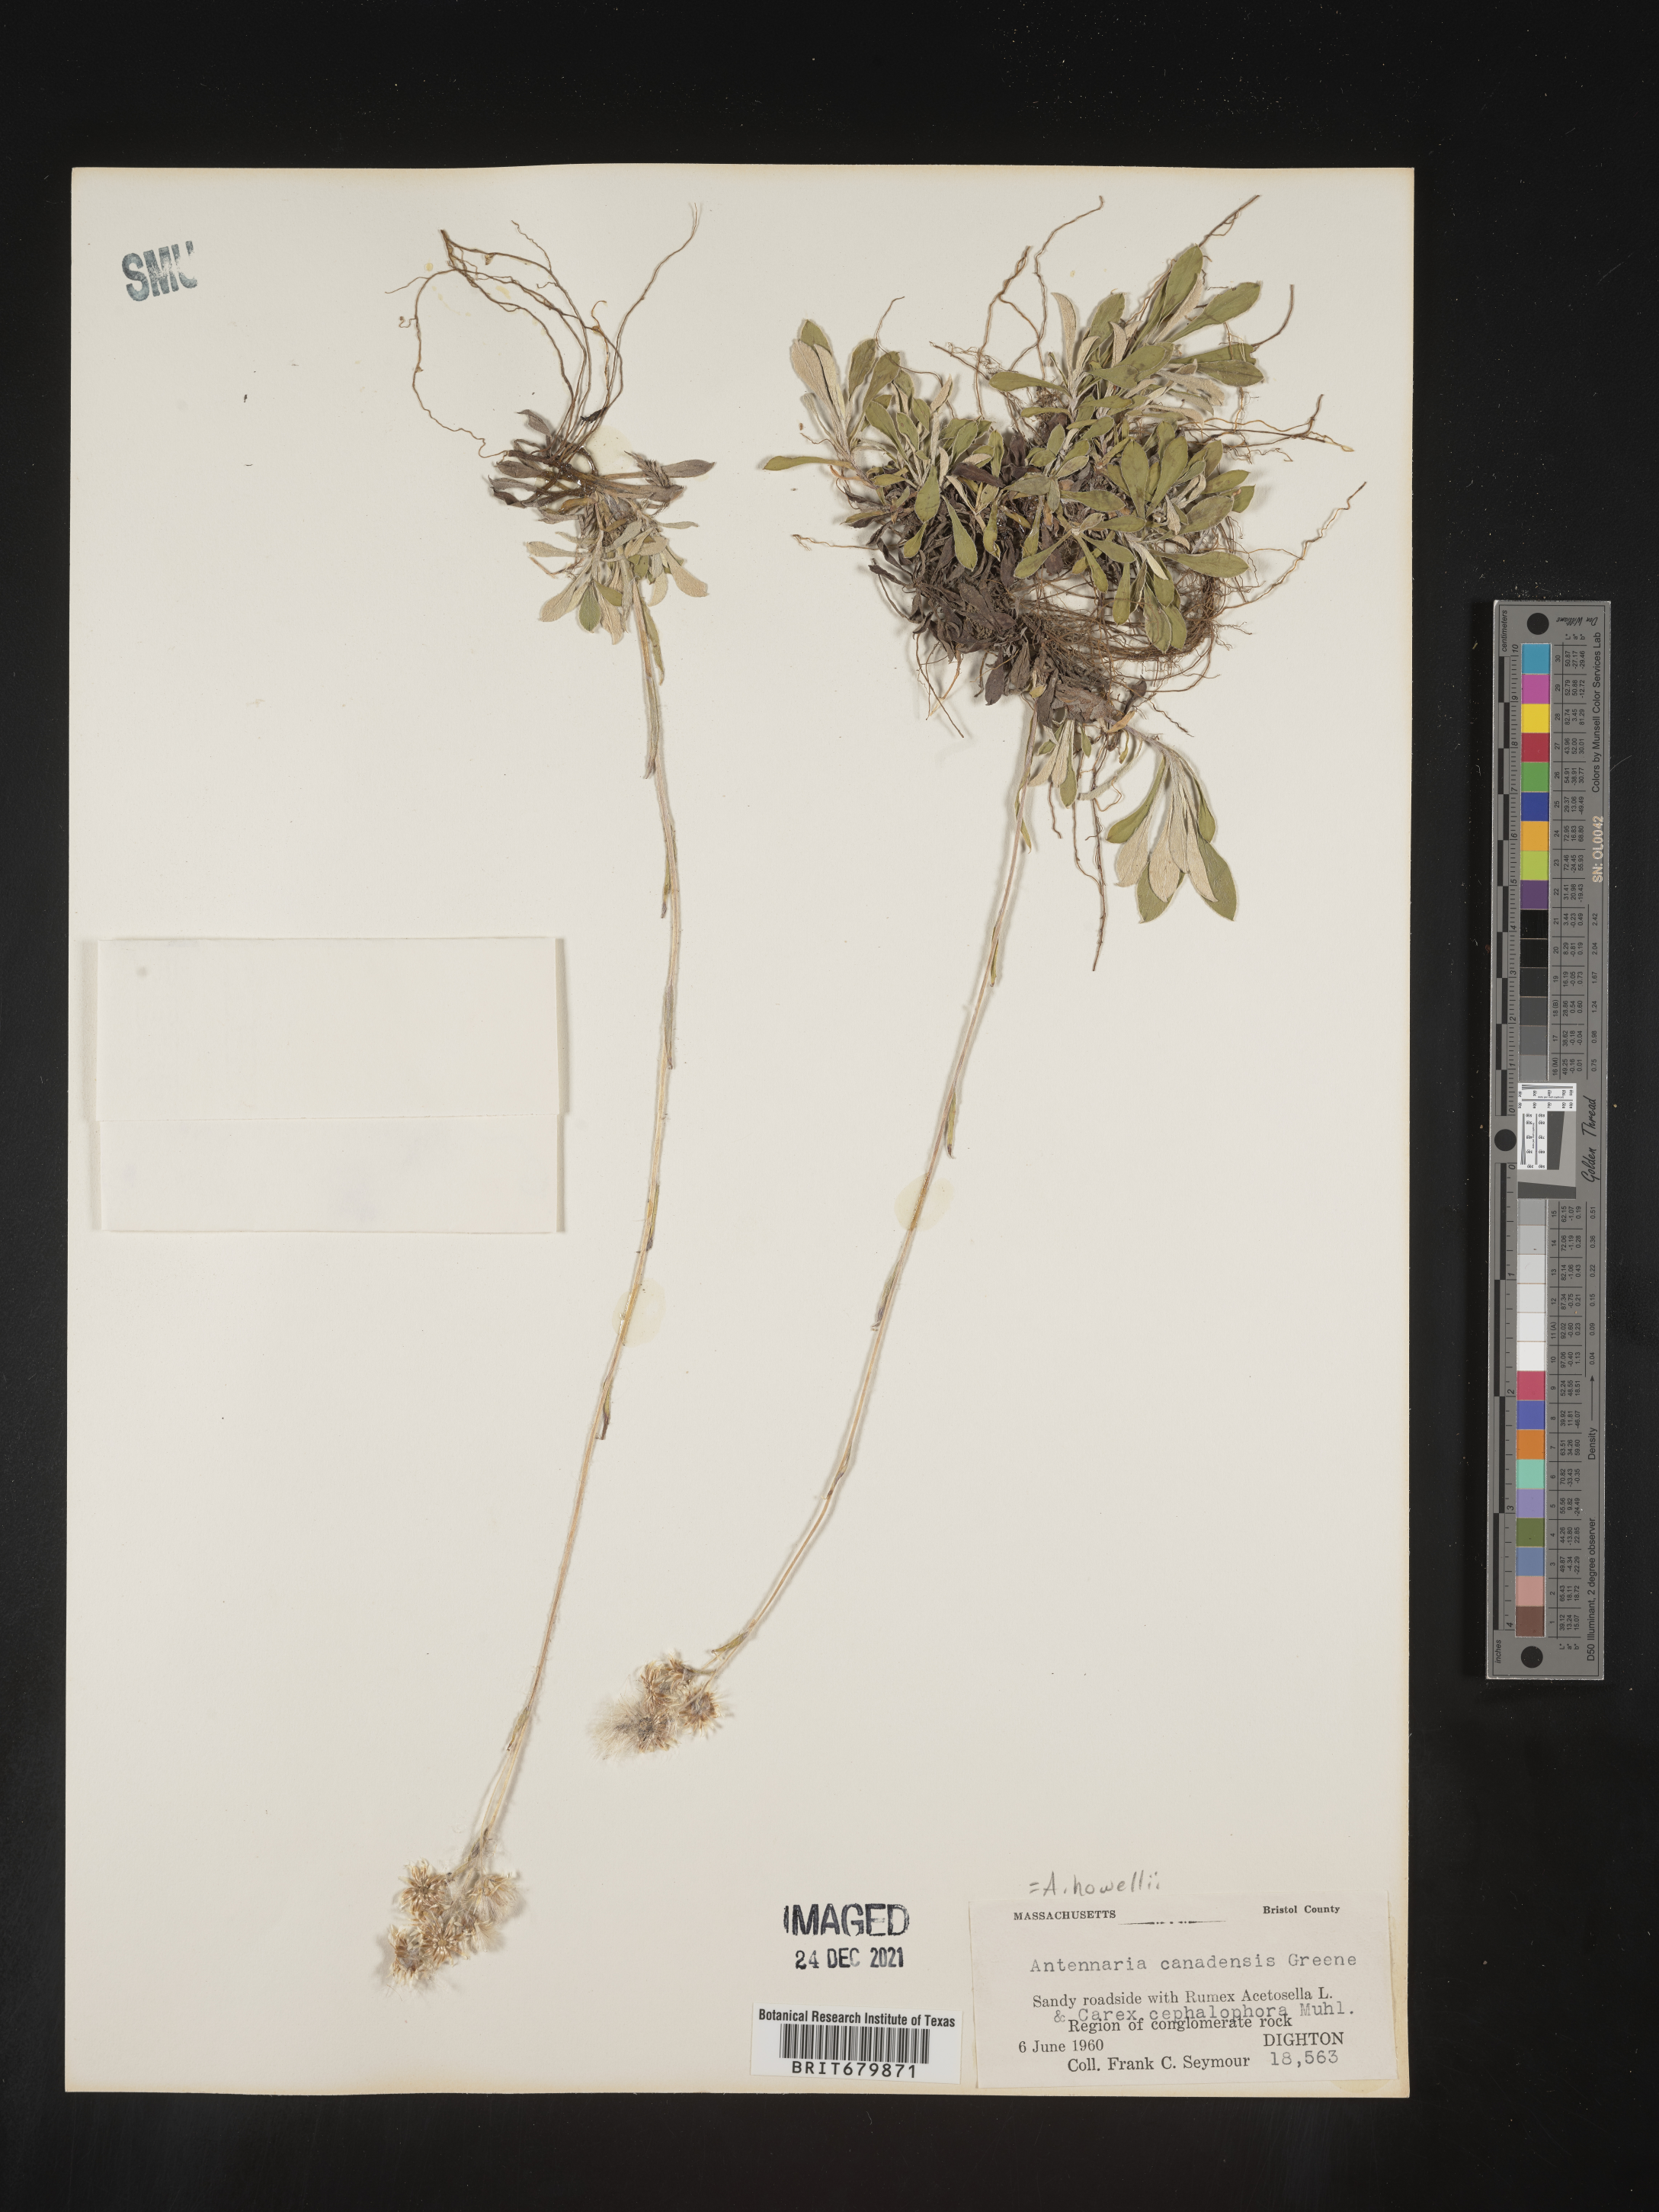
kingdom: Plantae
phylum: Tracheophyta
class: Magnoliopsida
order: Asterales
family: Asteraceae
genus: Antennaria
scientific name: Antennaria howellii
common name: Howell's pussytoes
